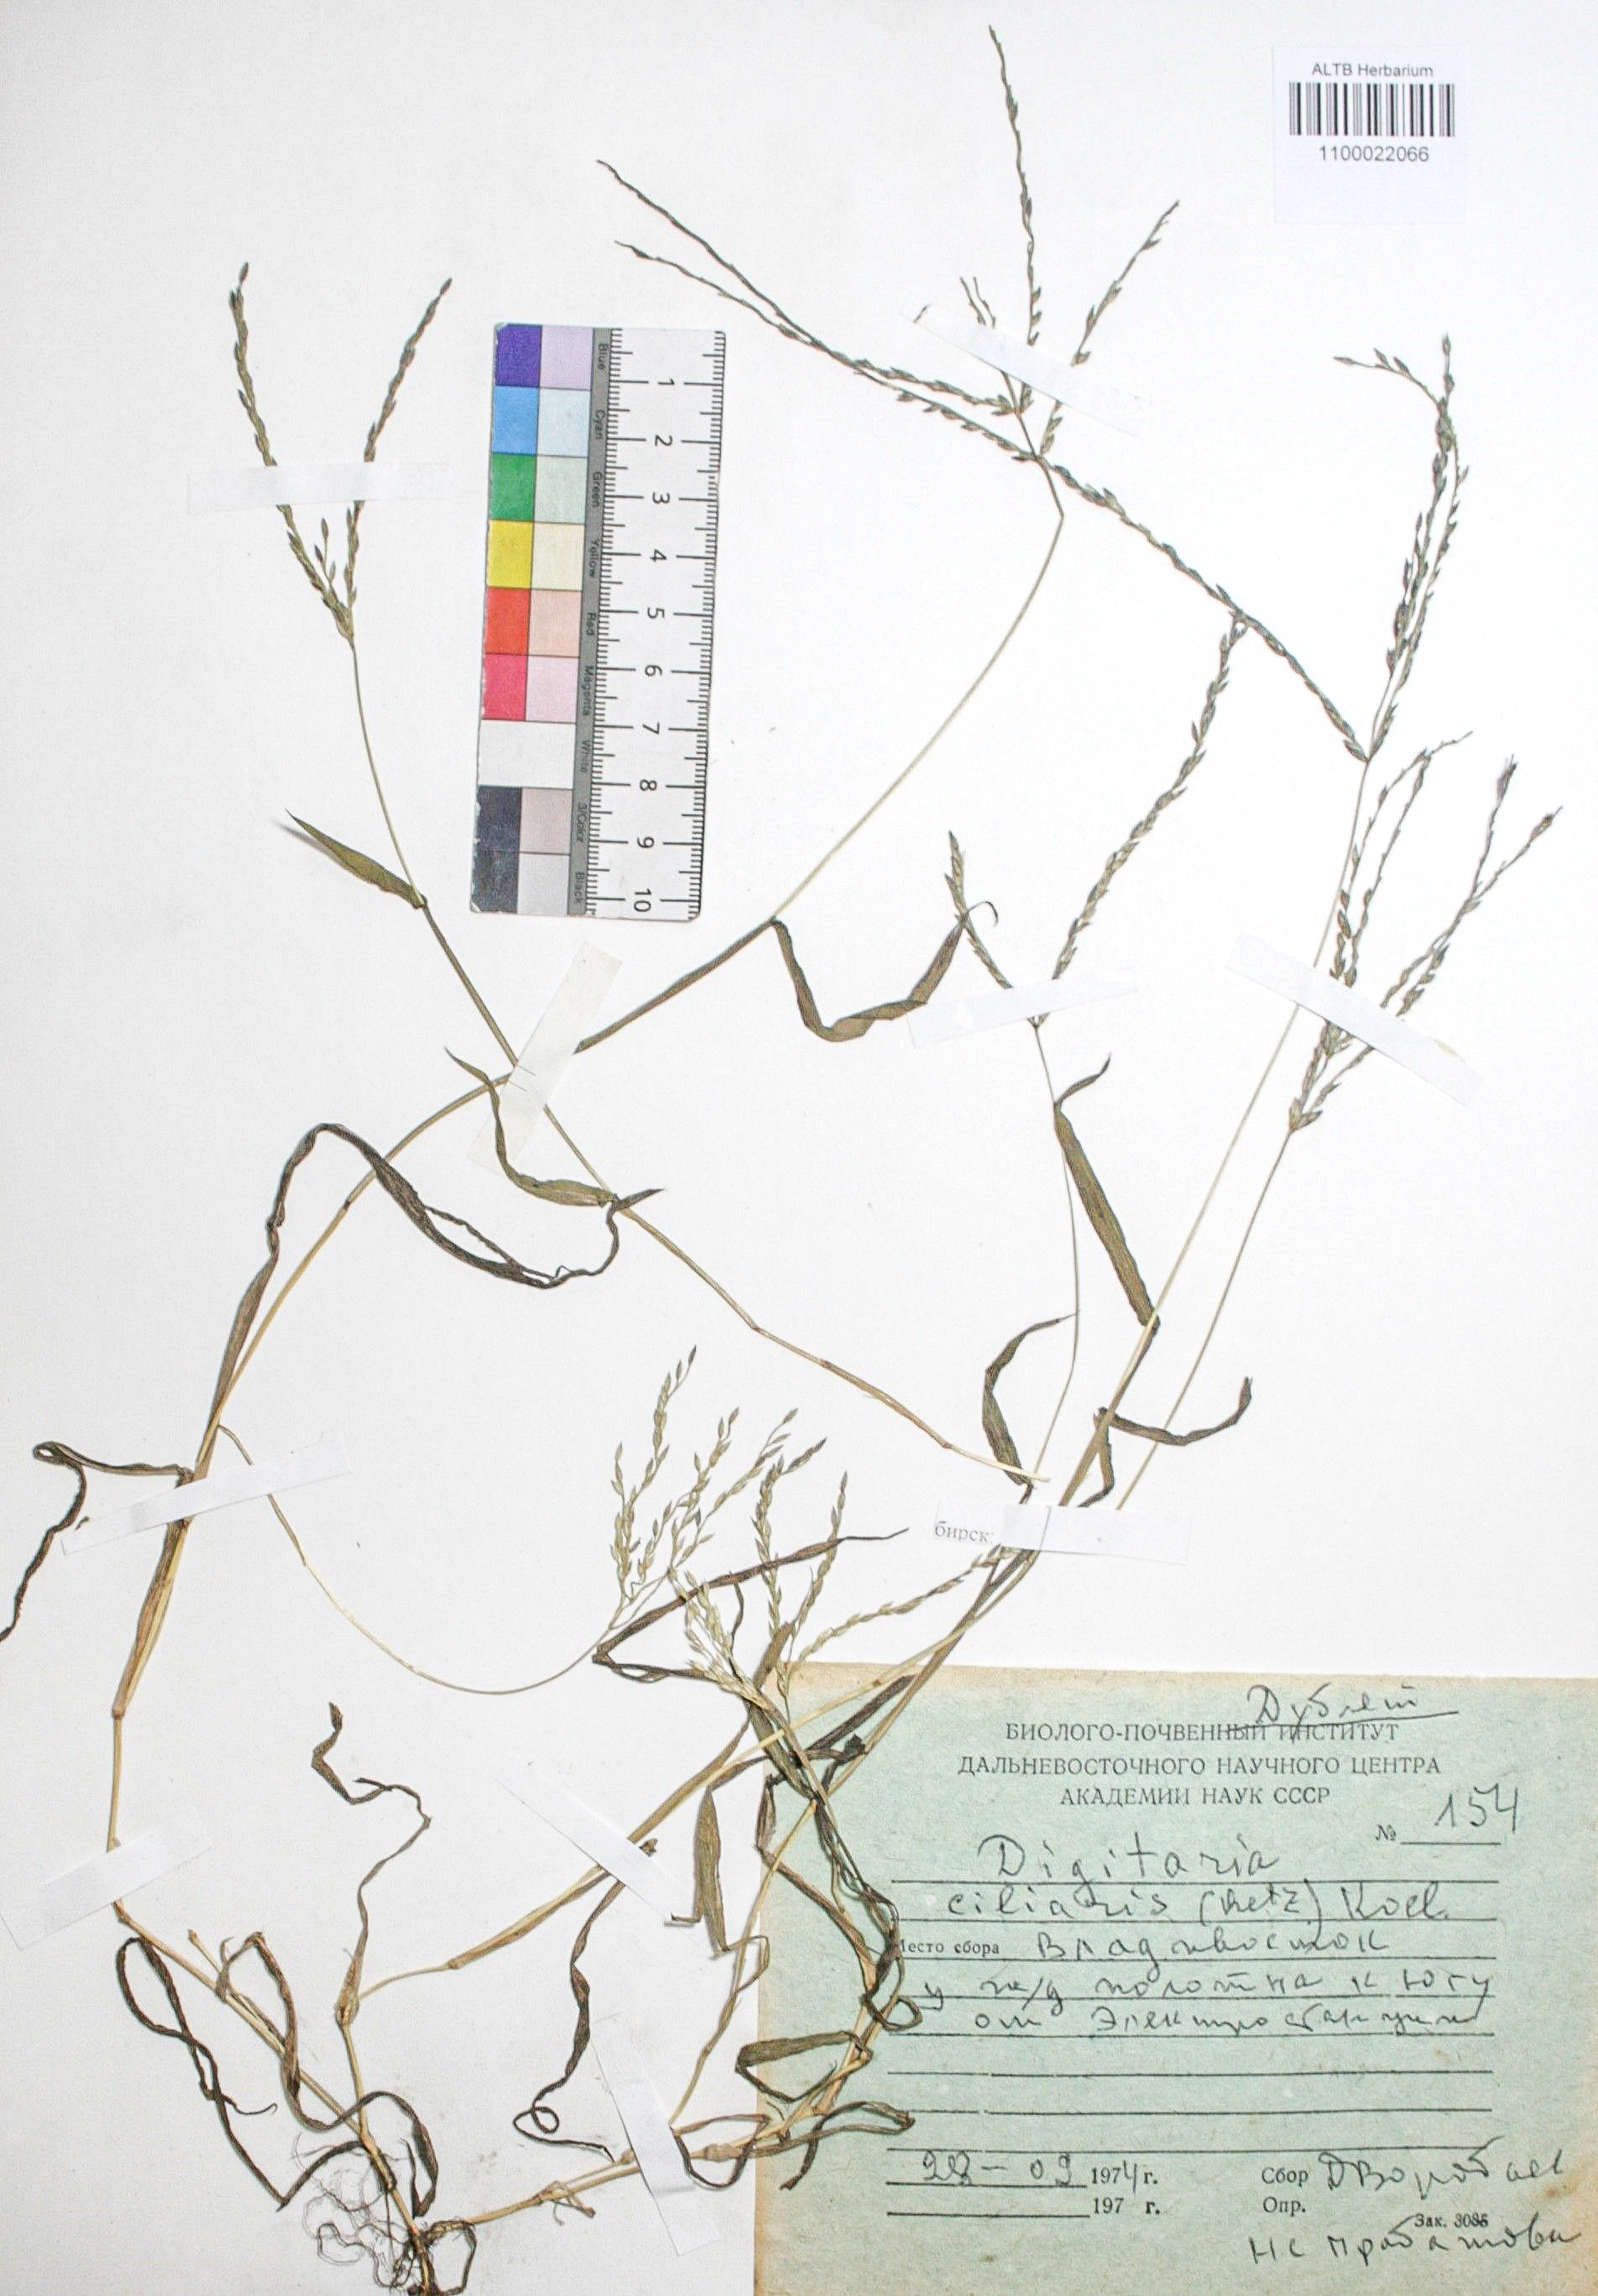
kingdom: Plantae
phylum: Tracheophyta
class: Liliopsida
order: Poales
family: Poaceae
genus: Digitaria
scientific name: Digitaria ciliaris
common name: Tropical finger-grass
